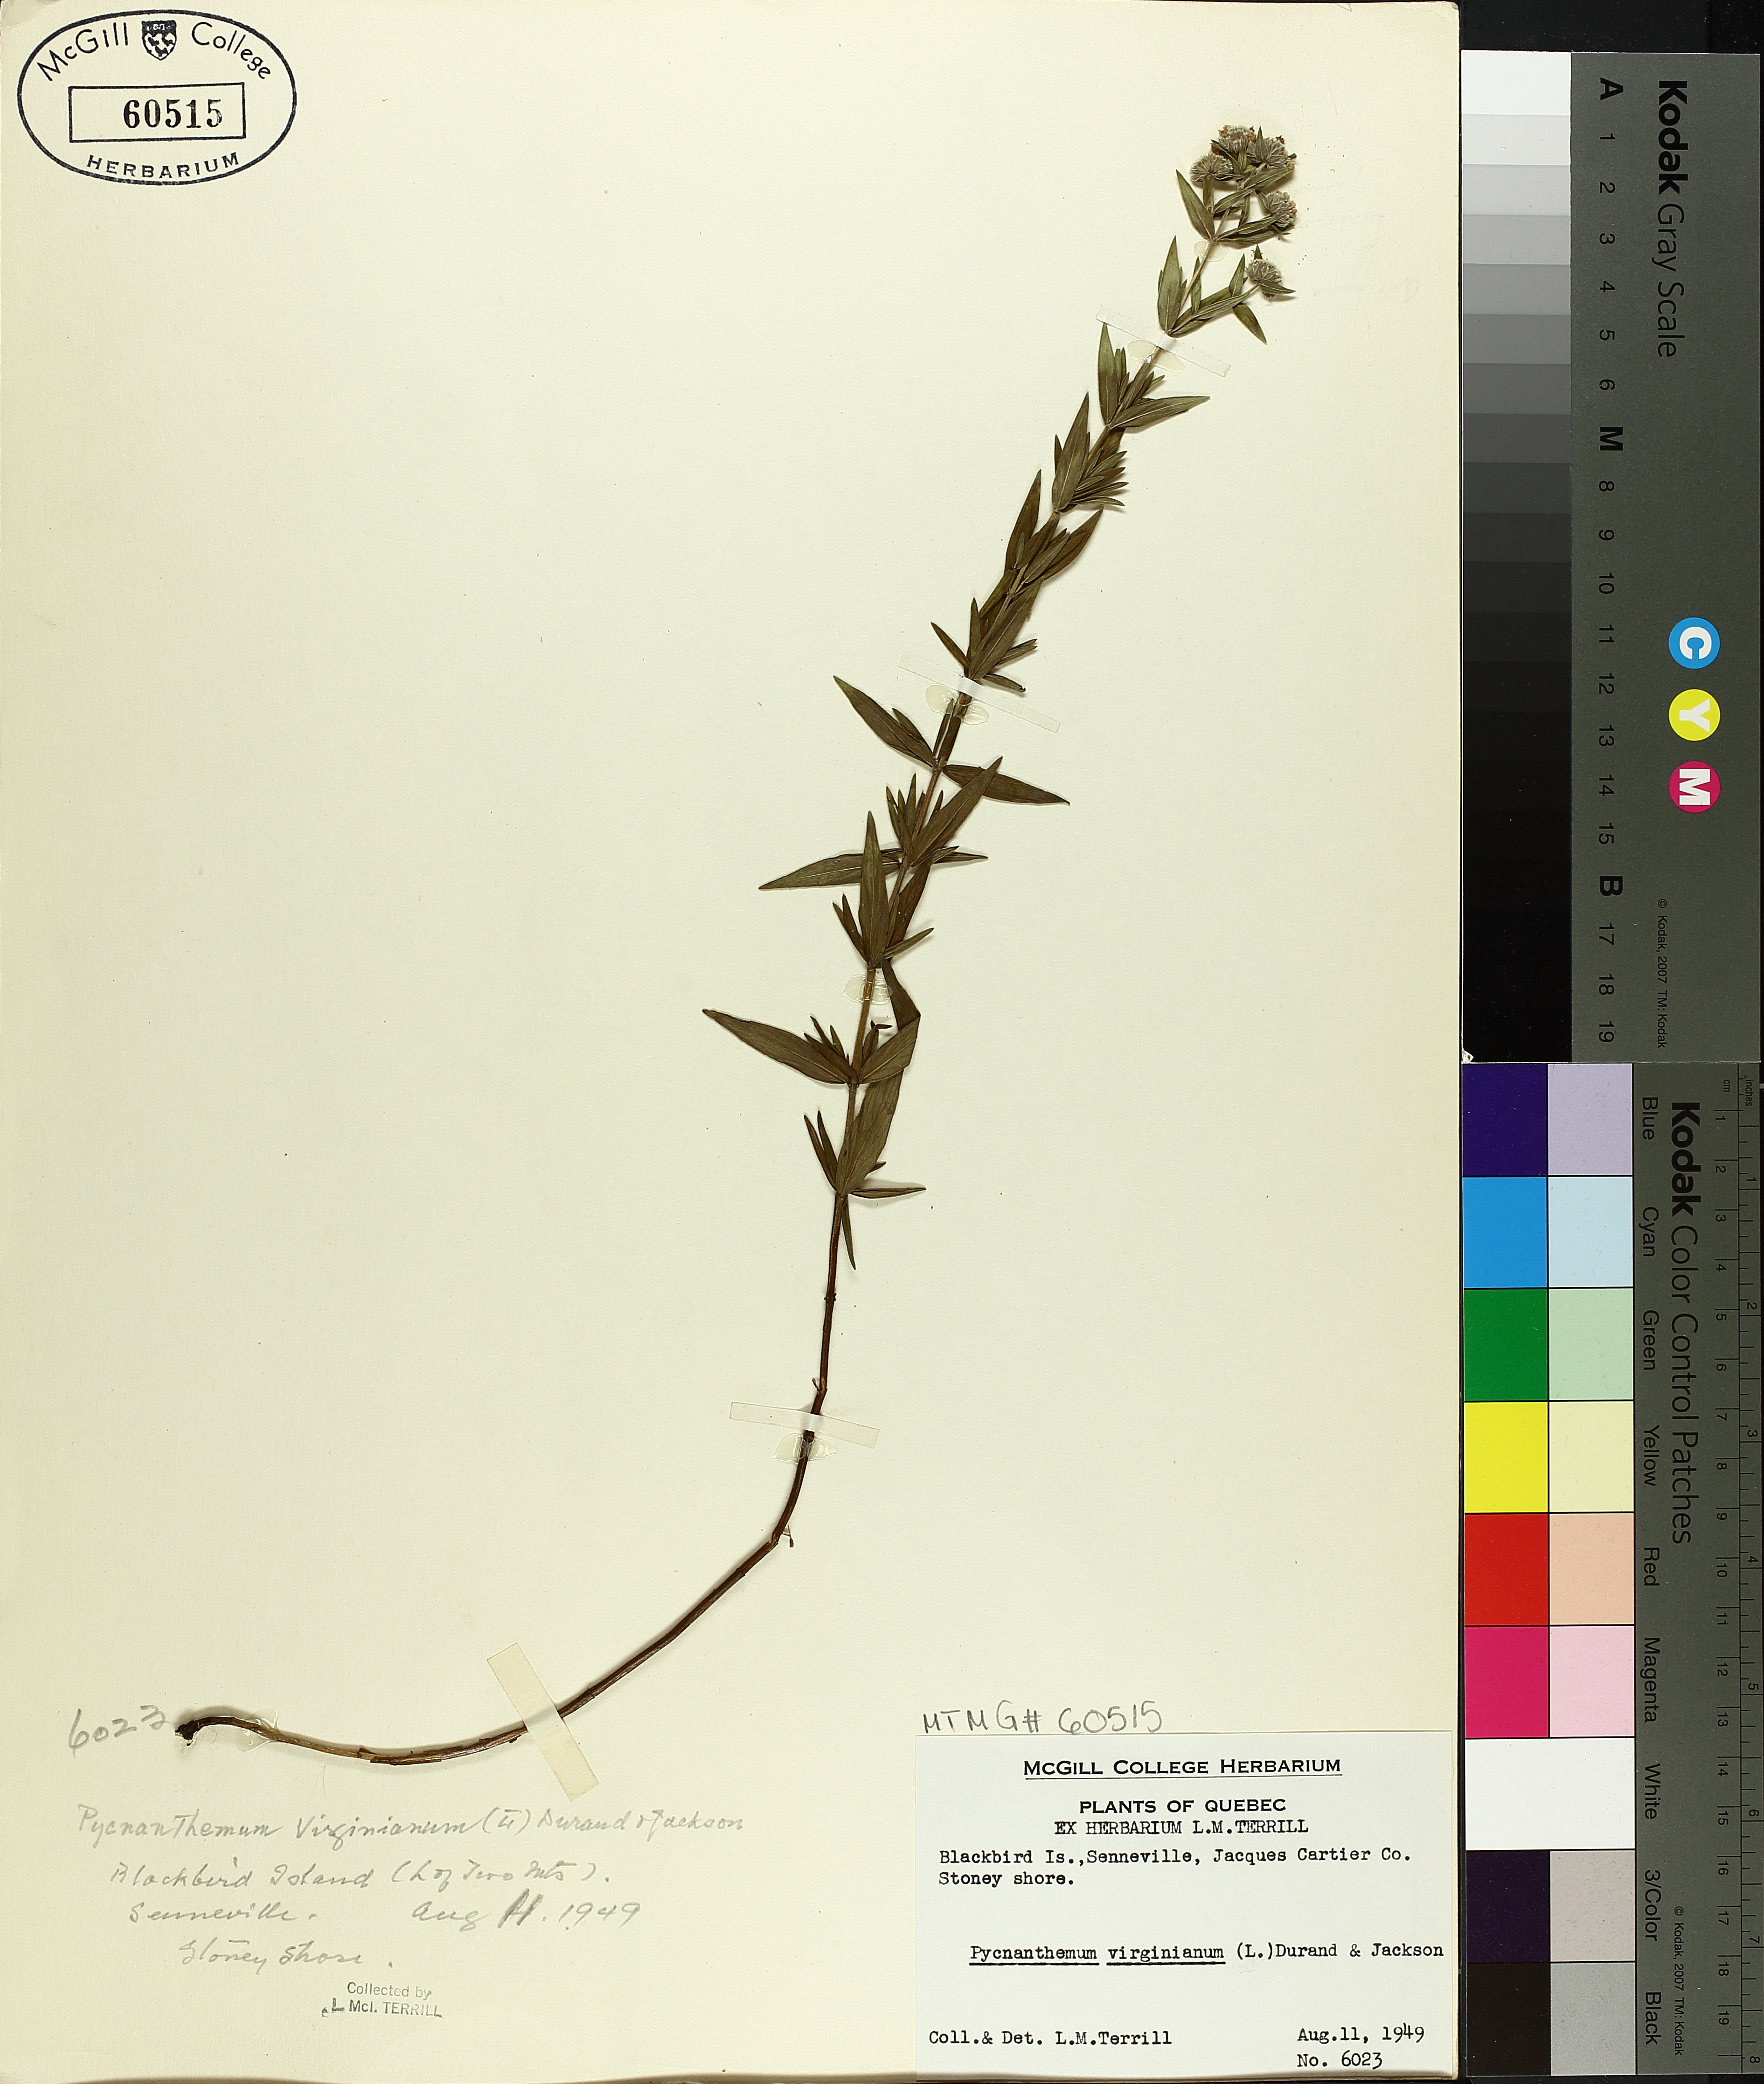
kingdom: Plantae
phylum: Tracheophyta
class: Magnoliopsida
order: Lamiales
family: Lamiaceae
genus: Pycnanthemum
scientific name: Pycnanthemum virginianum
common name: Virginia mountain-mint
